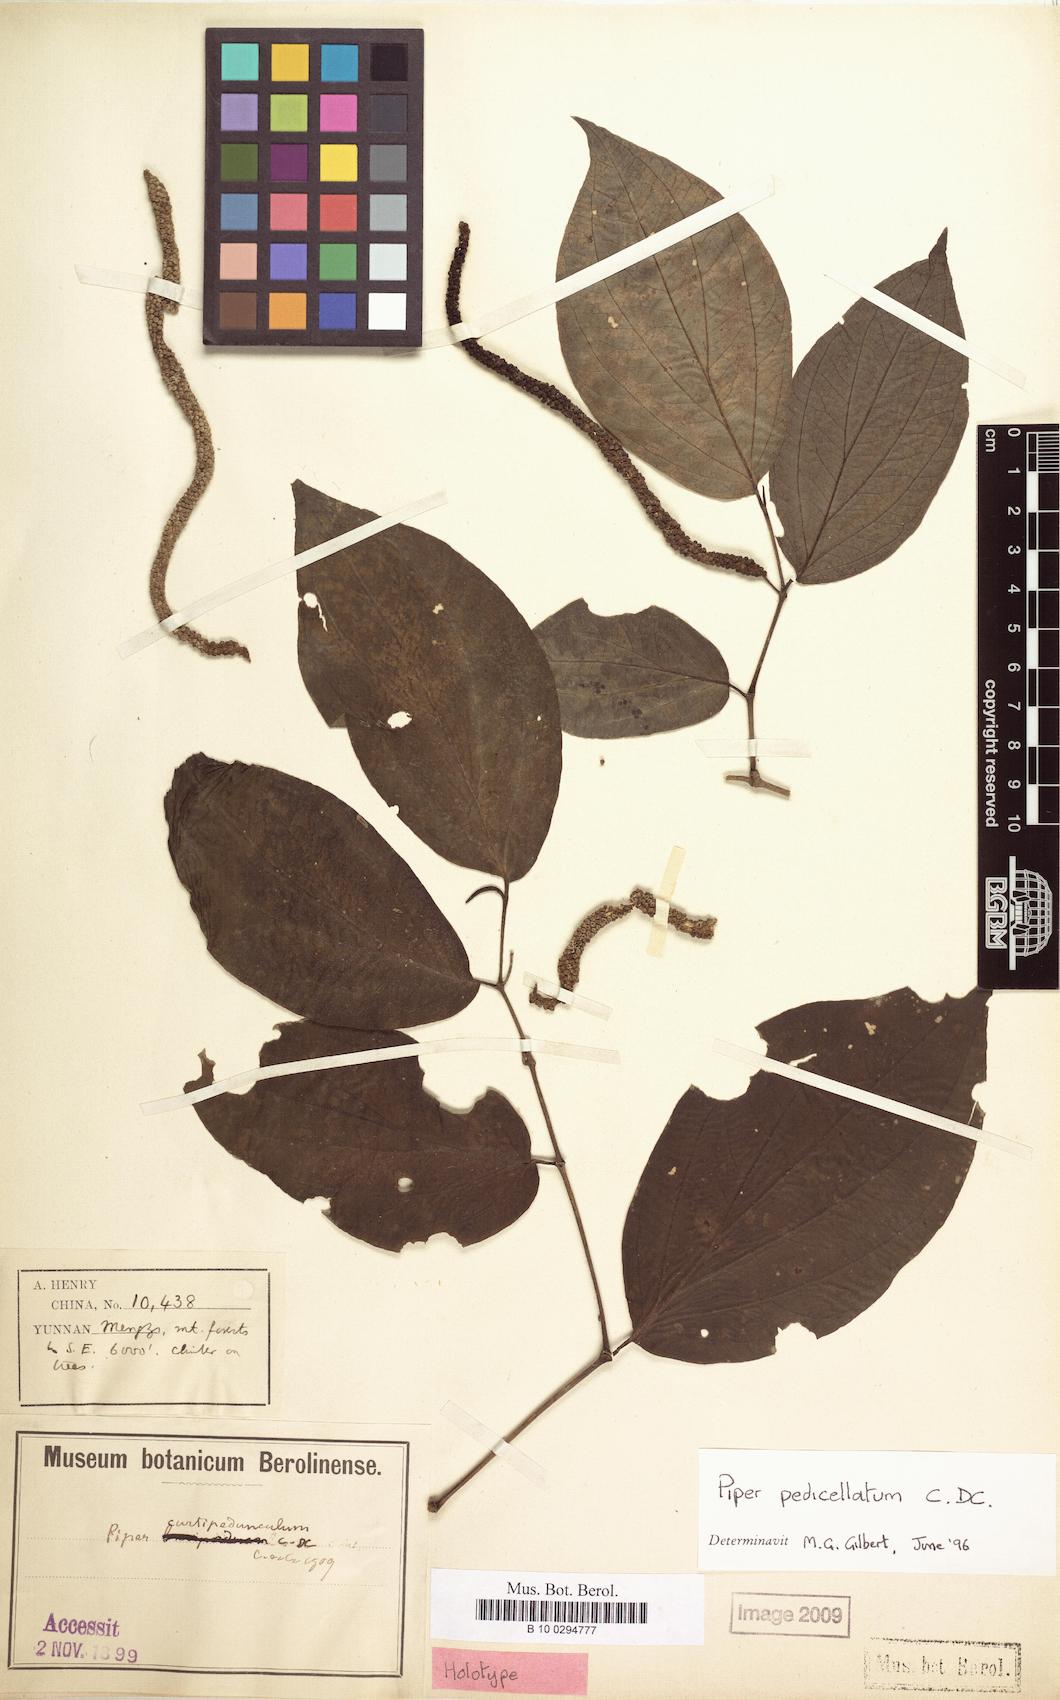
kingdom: Plantae
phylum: Tracheophyta
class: Magnoliopsida
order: Piperales
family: Piperaceae
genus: Piper
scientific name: Piper pedicellatum
